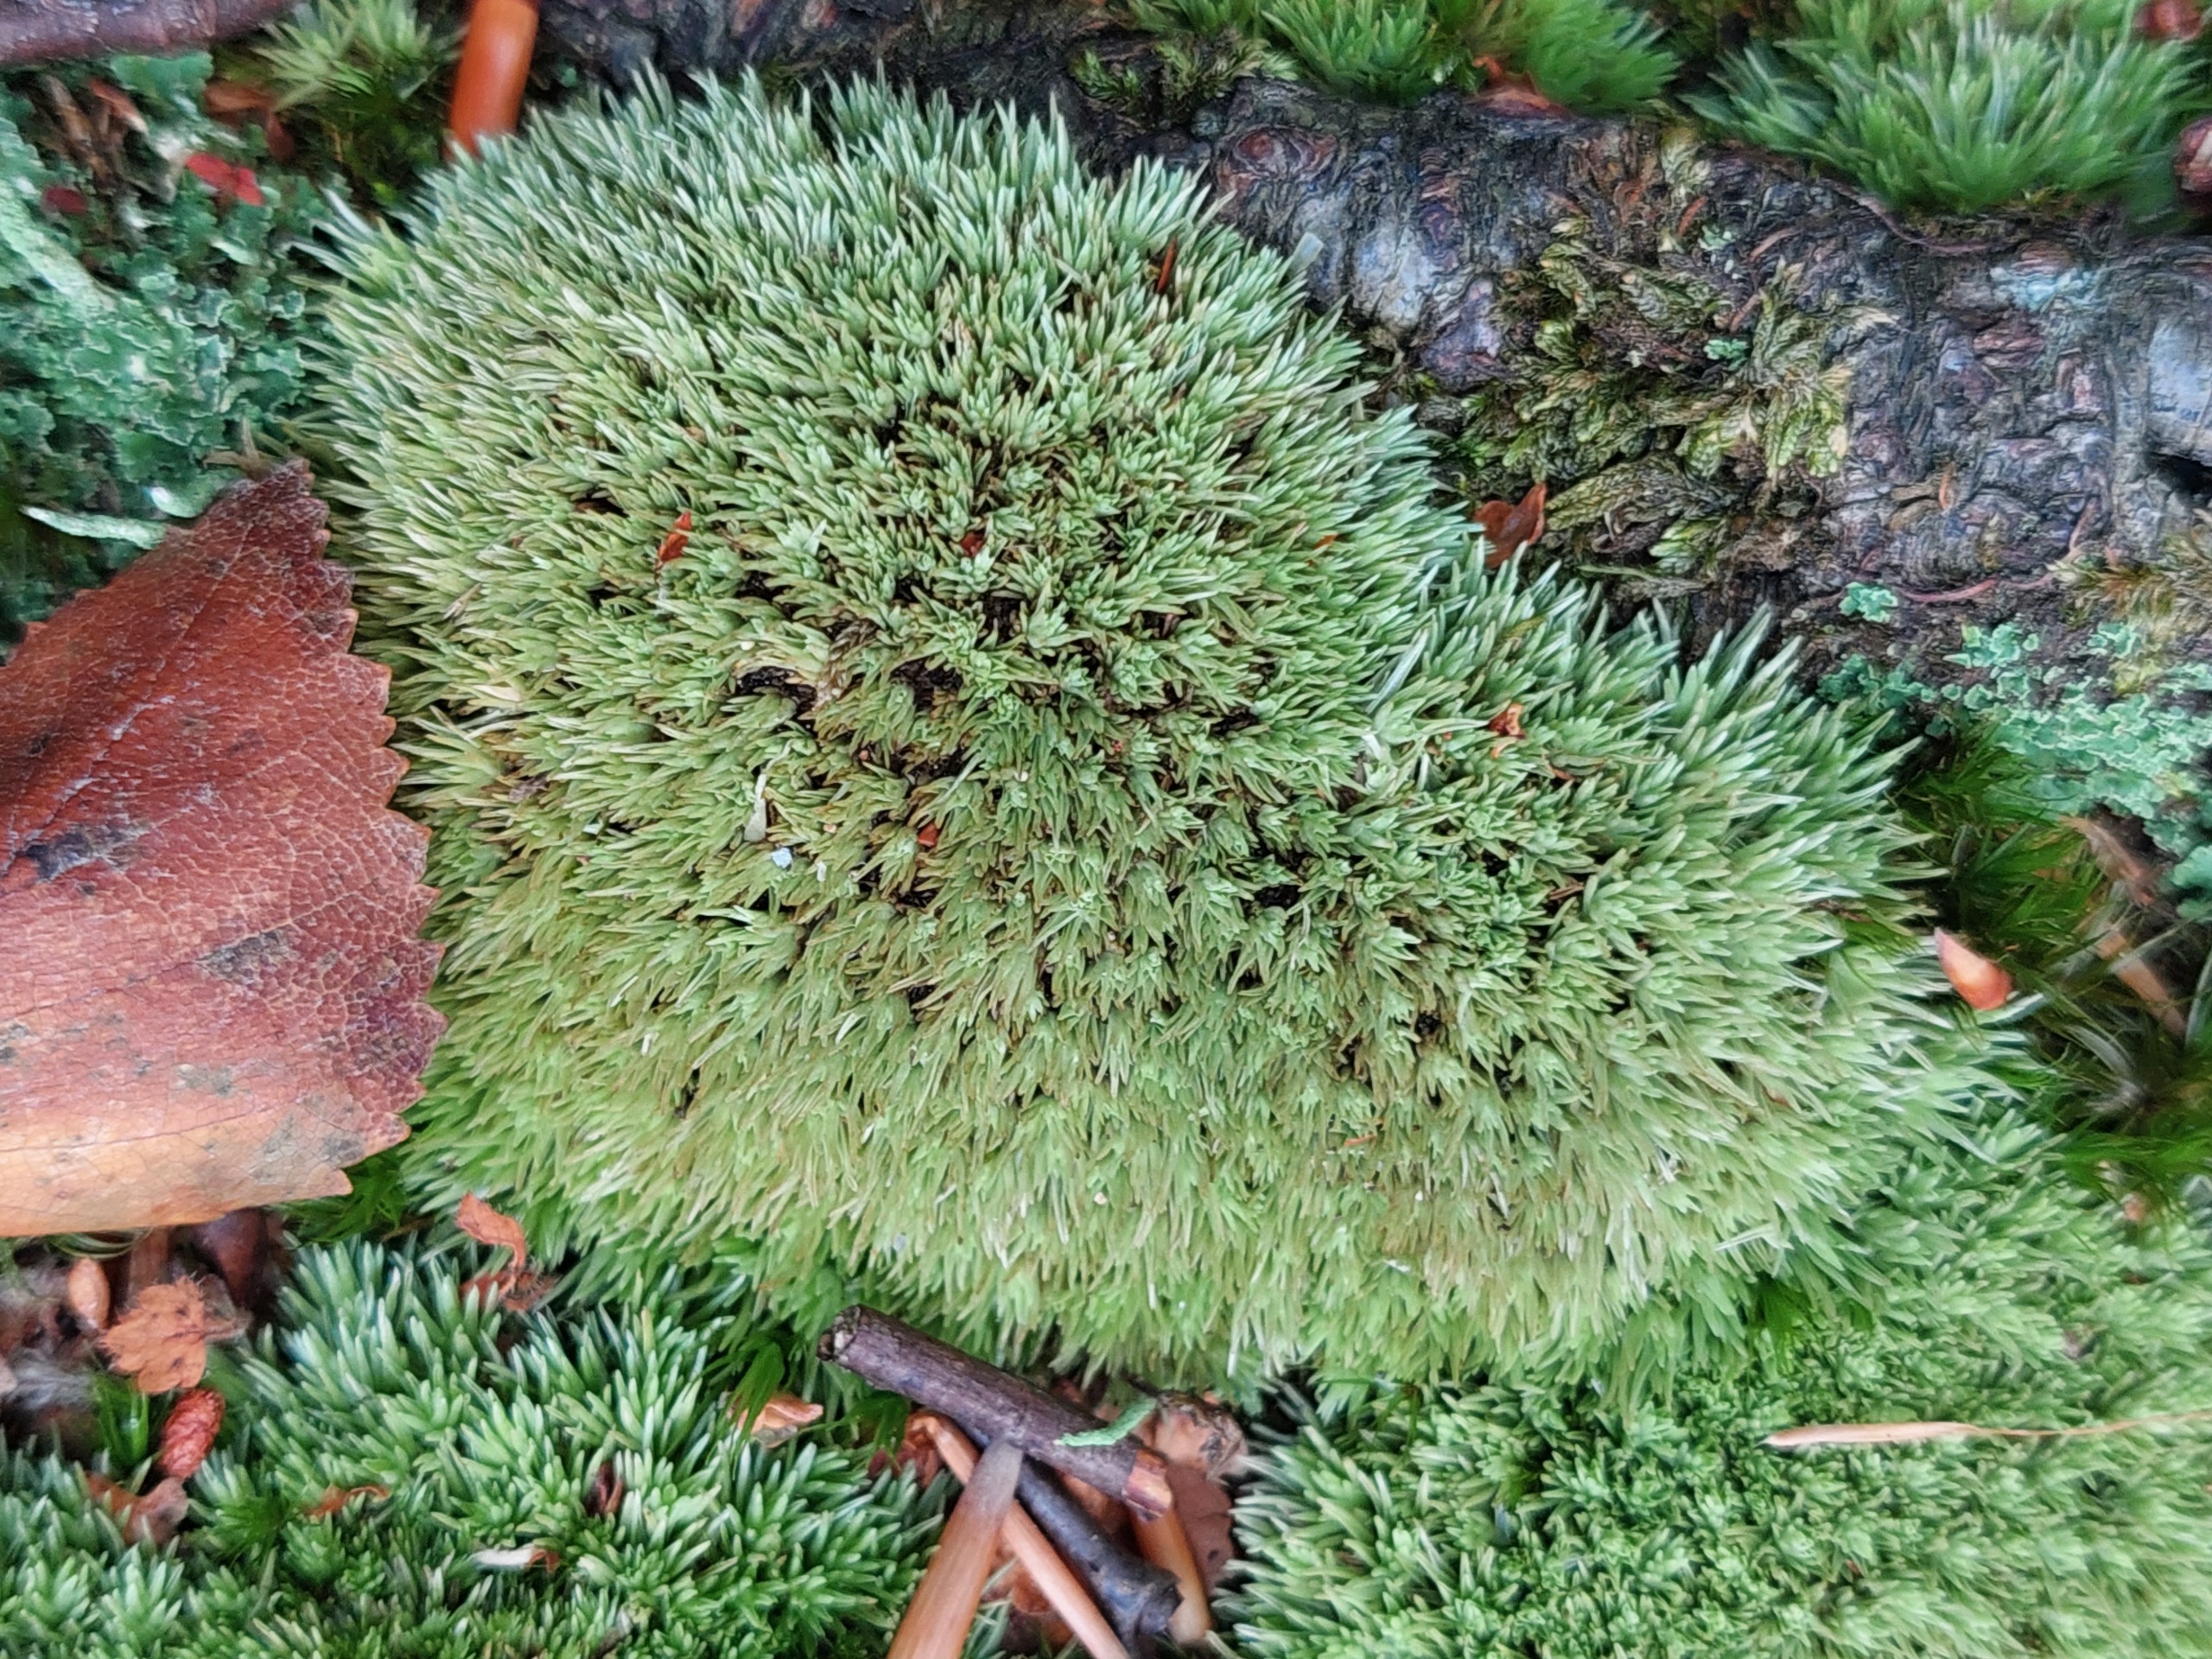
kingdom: Plantae
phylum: Bryophyta
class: Bryopsida
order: Dicranales
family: Leucobryaceae
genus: Leucobryum
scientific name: Leucobryum glaucum
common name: Almindelig hvidmos
